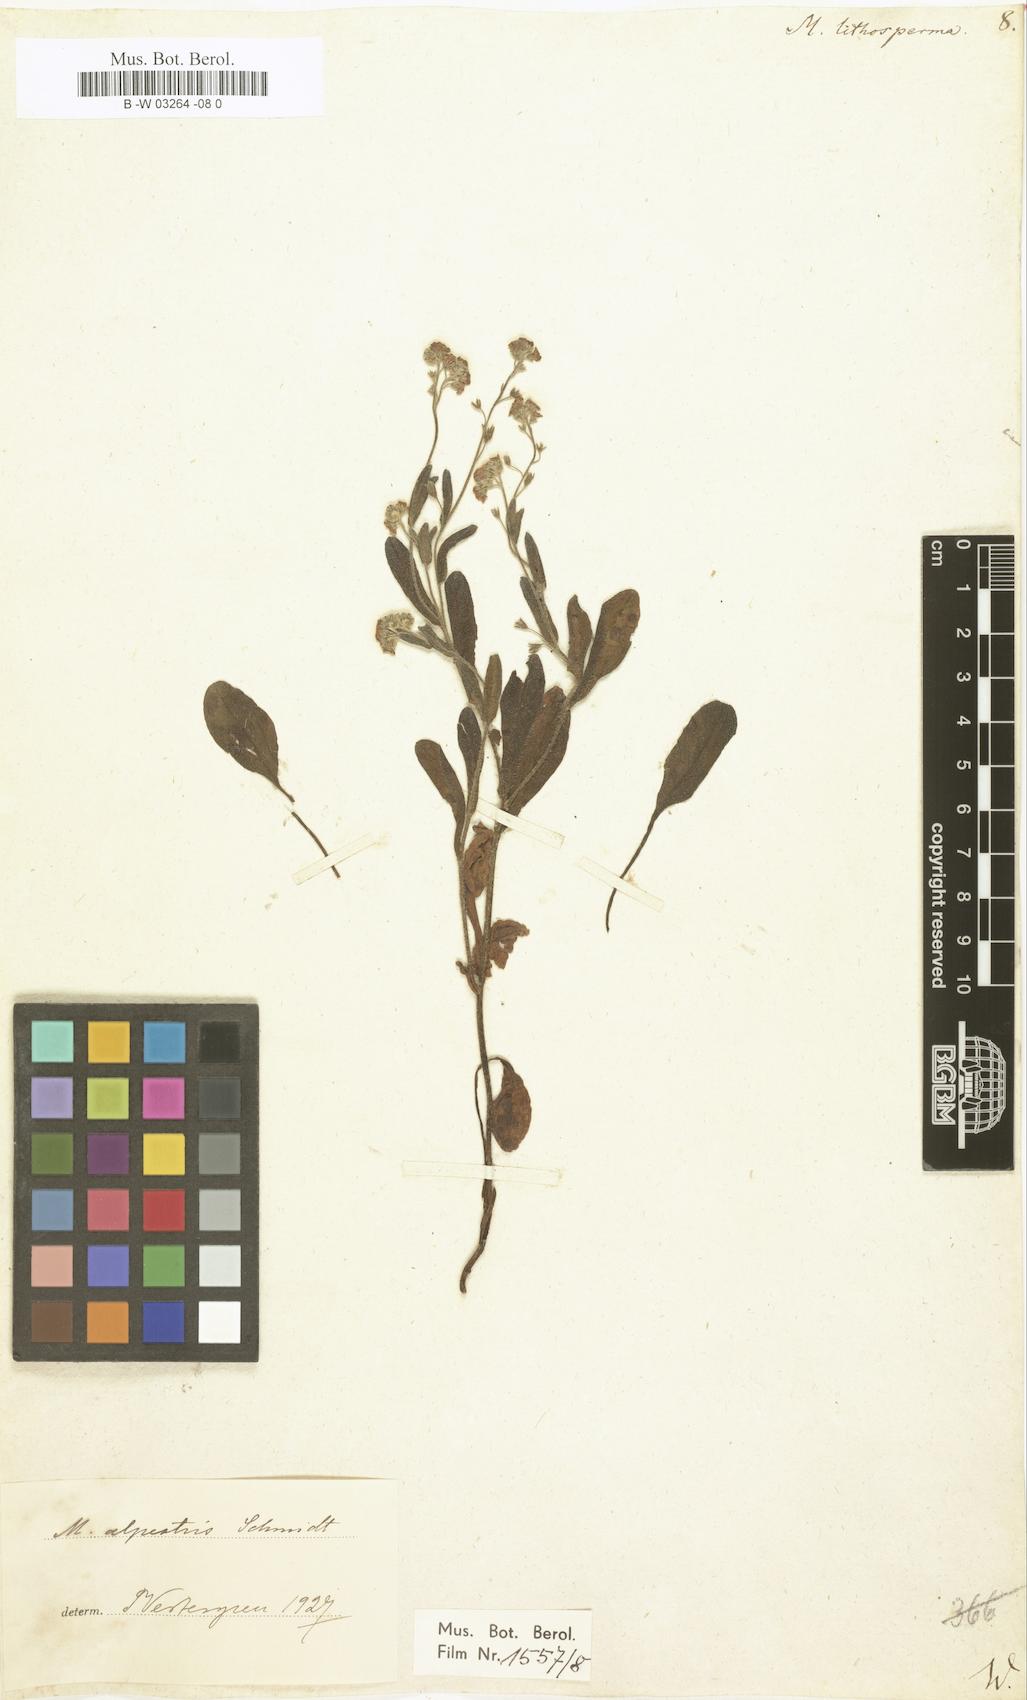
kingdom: Plantae
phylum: Tracheophyta
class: Magnoliopsida
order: Boraginales
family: Boraginaceae
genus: Myosotis
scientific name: Myosotis
